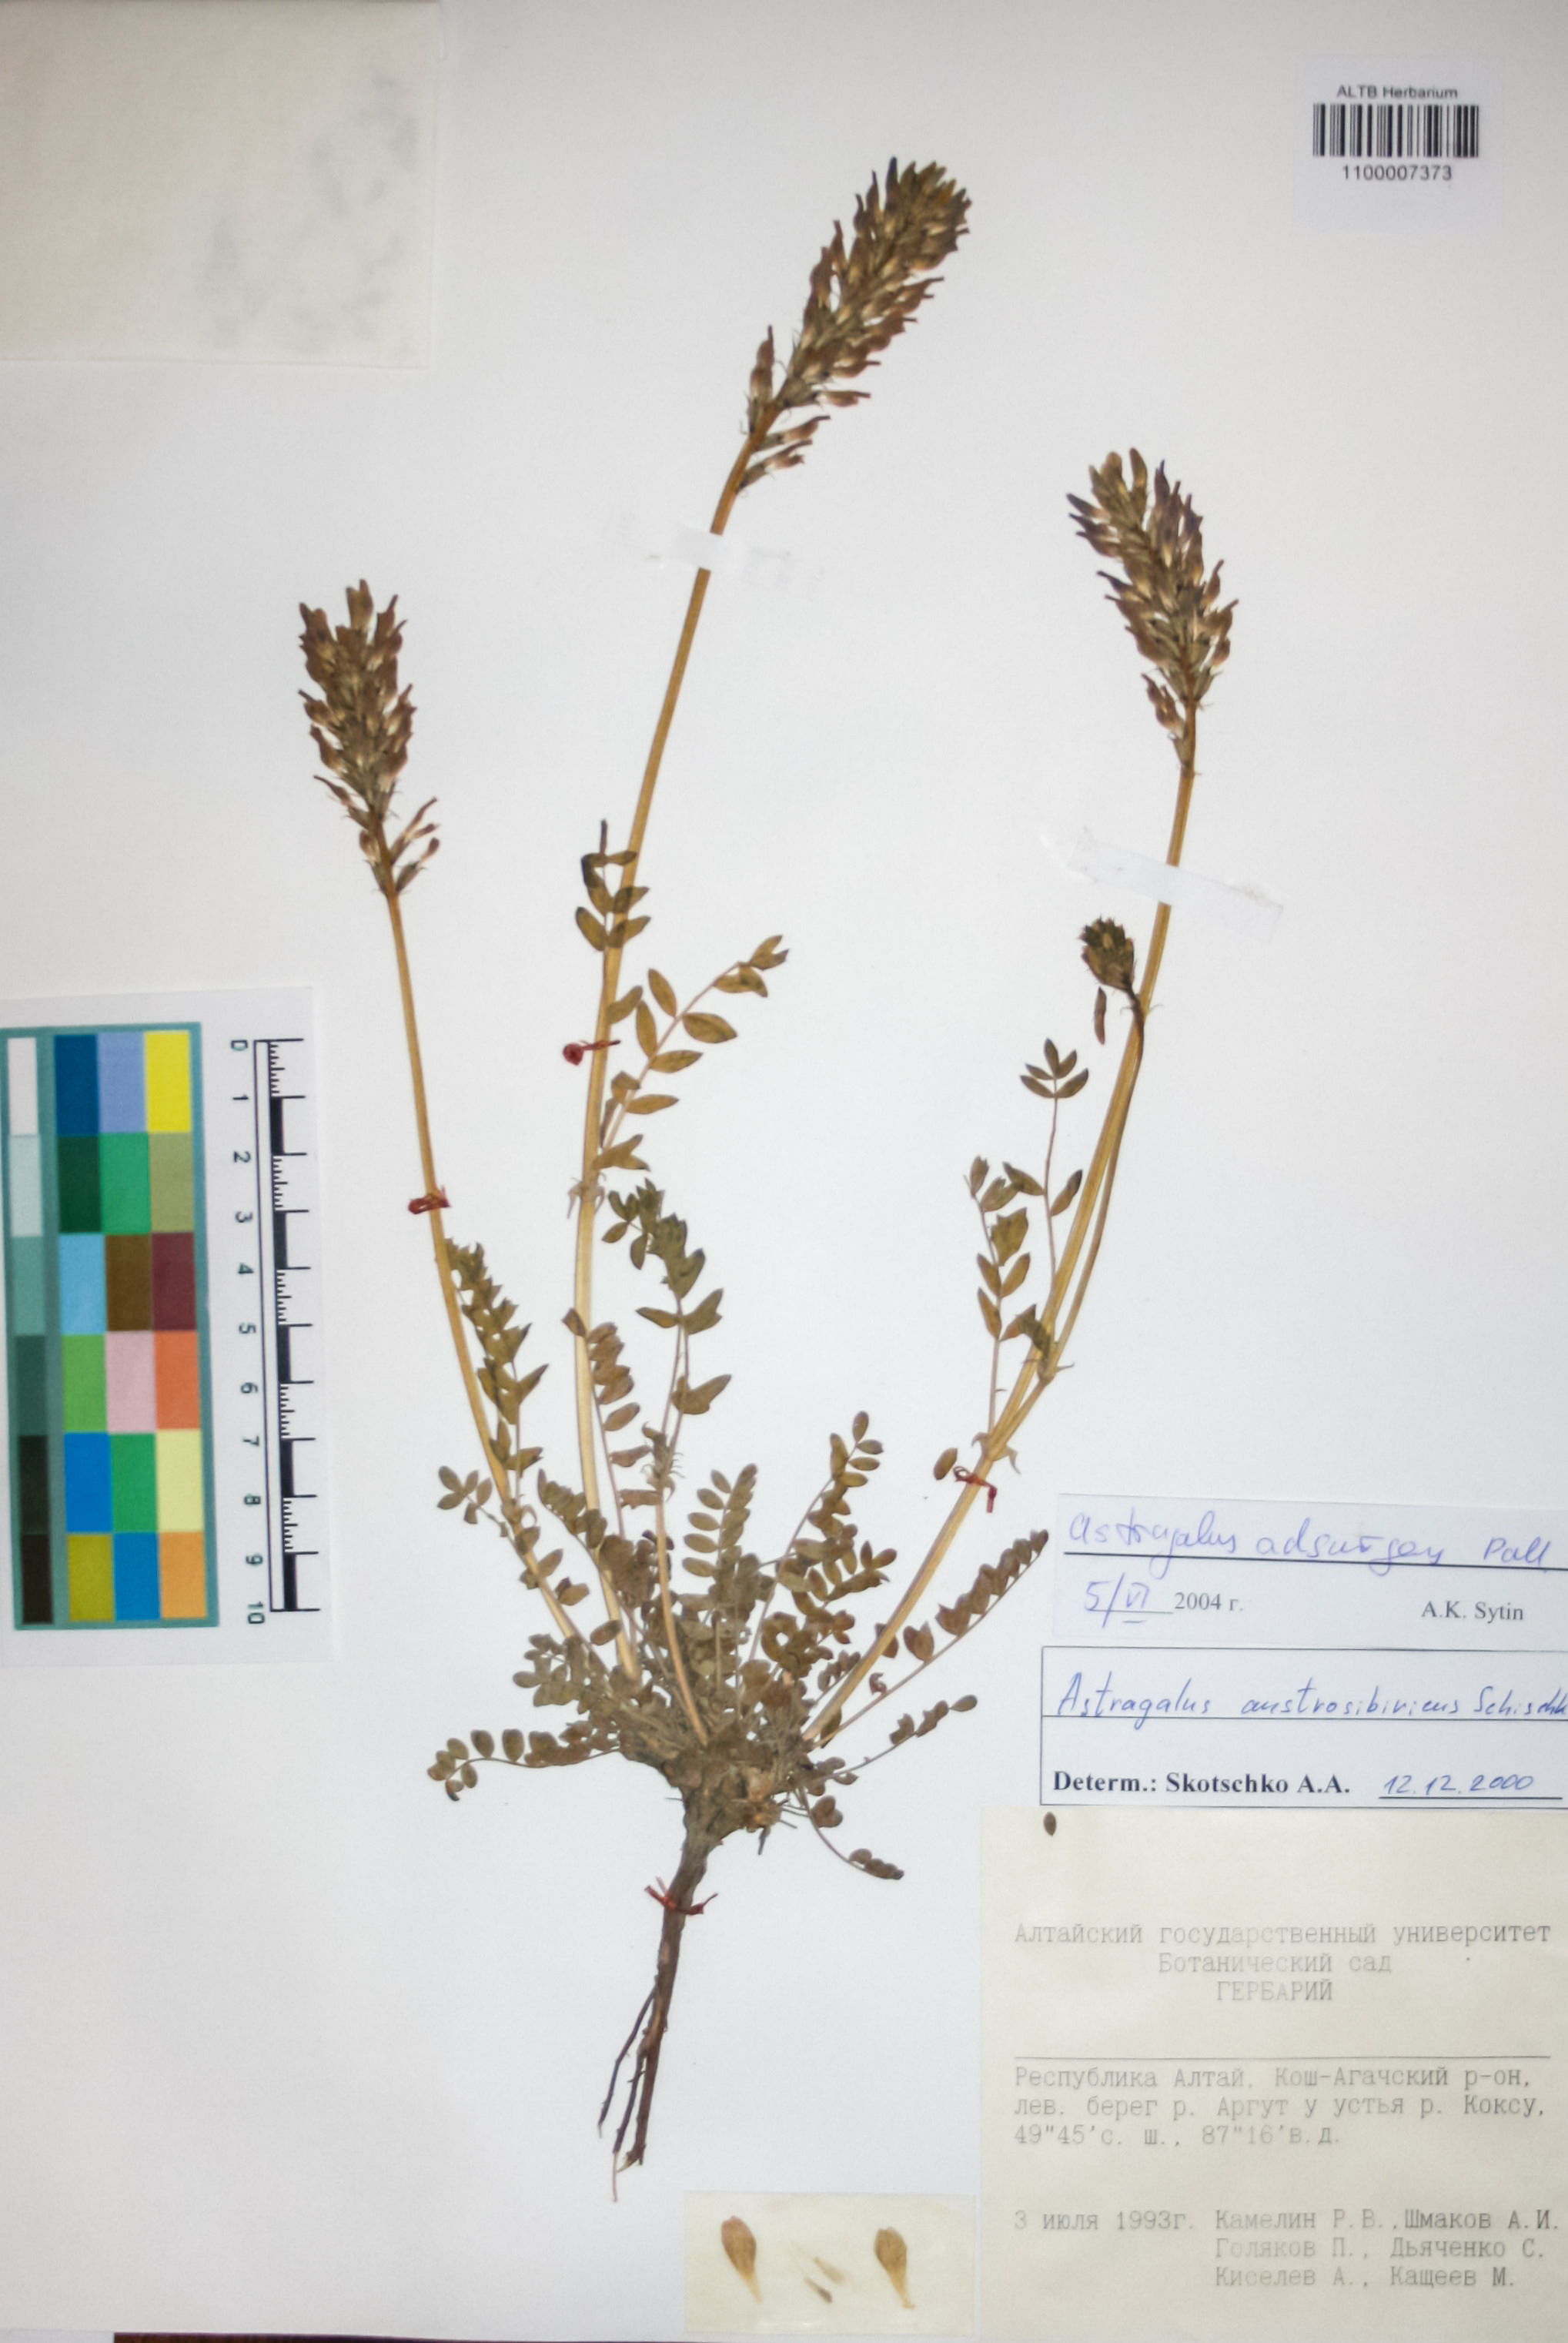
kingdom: Plantae
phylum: Tracheophyta
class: Magnoliopsida
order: Fabales
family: Fabaceae
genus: Astragalus
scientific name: Astragalus laxmannii
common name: Laxmann's milk-vetch
